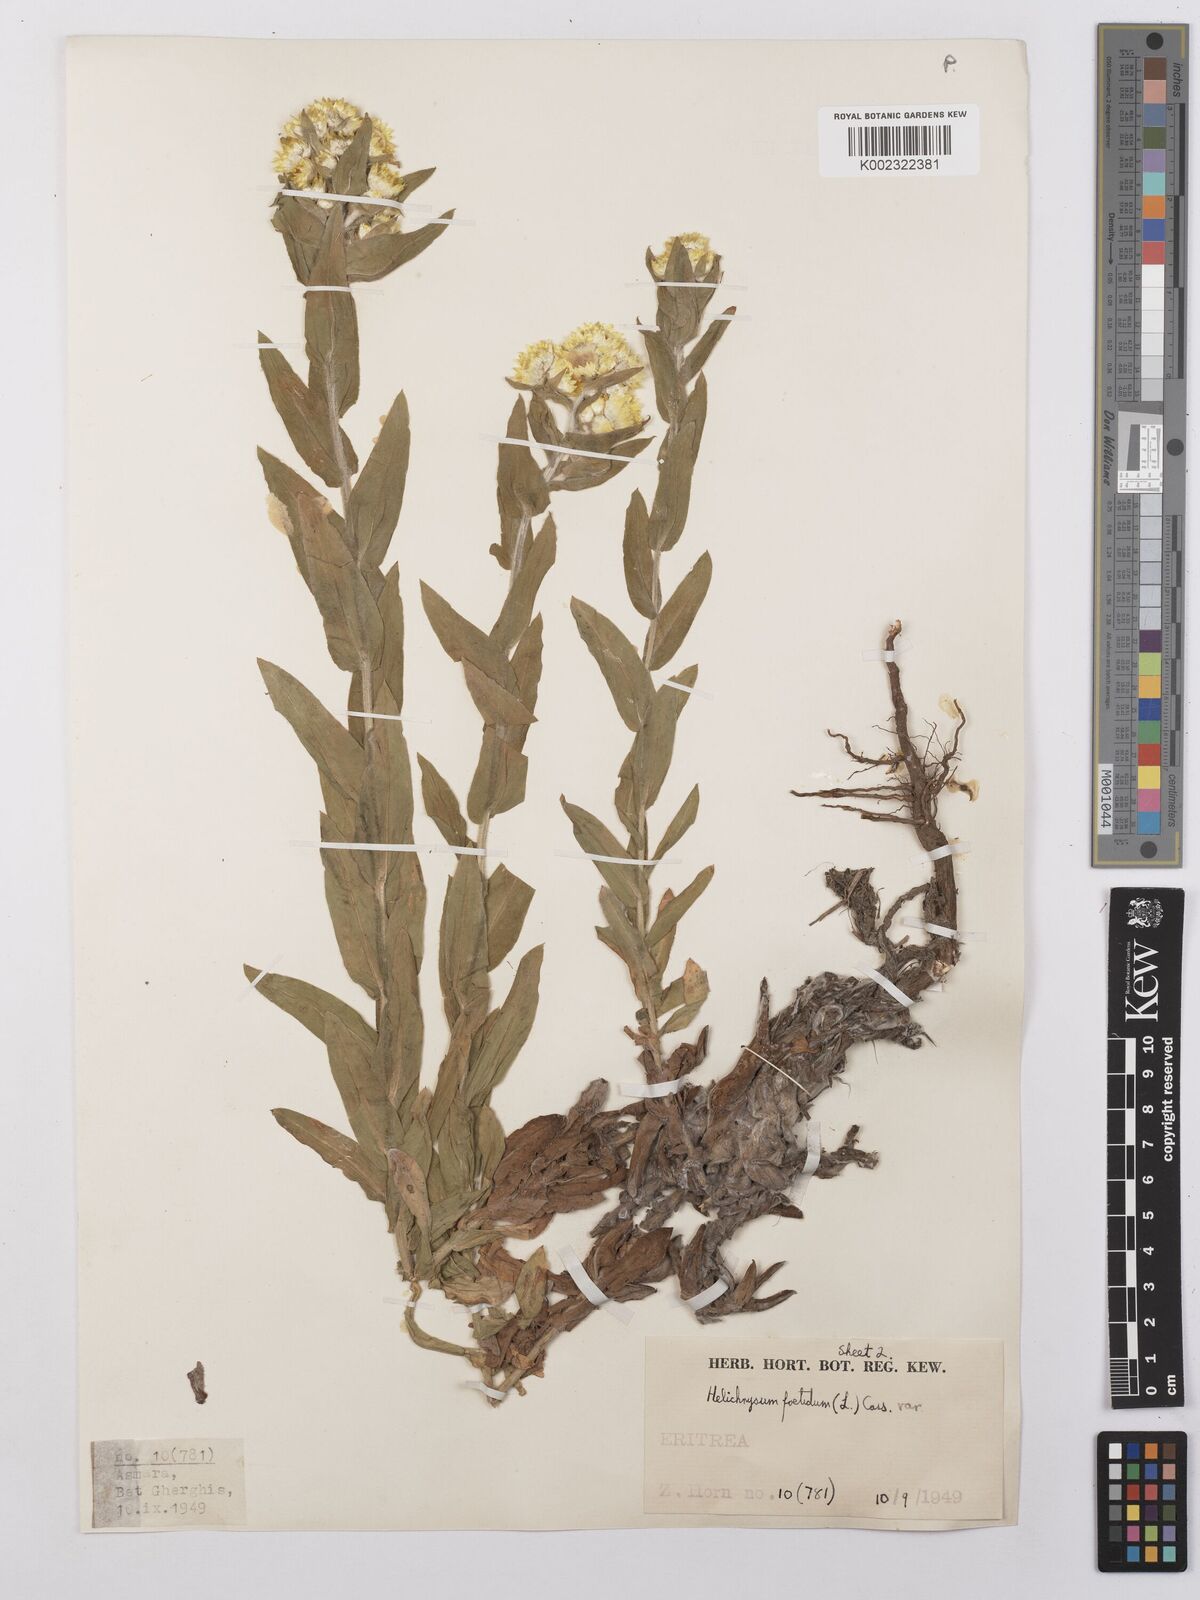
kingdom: Plantae
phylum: Tracheophyta
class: Magnoliopsida
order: Asterales
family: Asteraceae
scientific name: Asteraceae
